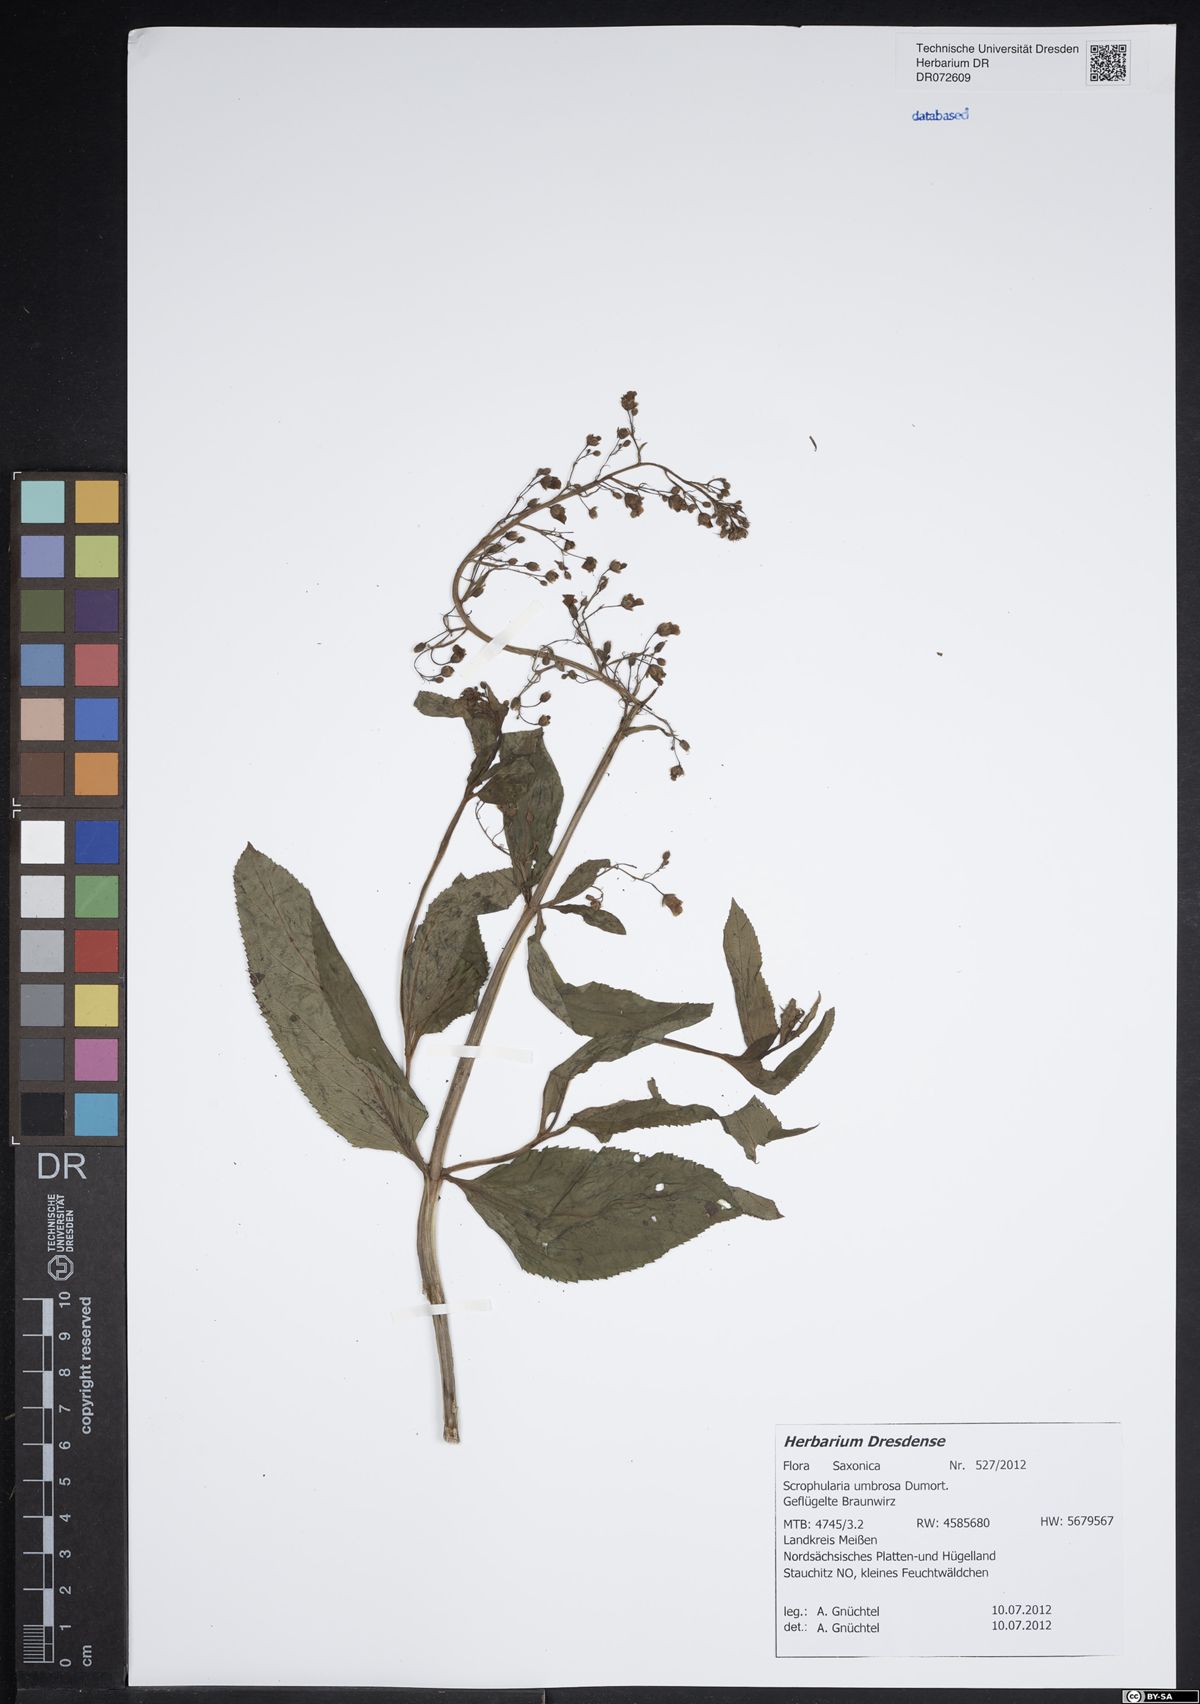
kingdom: Plantae
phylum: Tracheophyta
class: Magnoliopsida
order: Lamiales
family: Scrophulariaceae
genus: Scrophularia
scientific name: Scrophularia umbrosa
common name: Green figwort
